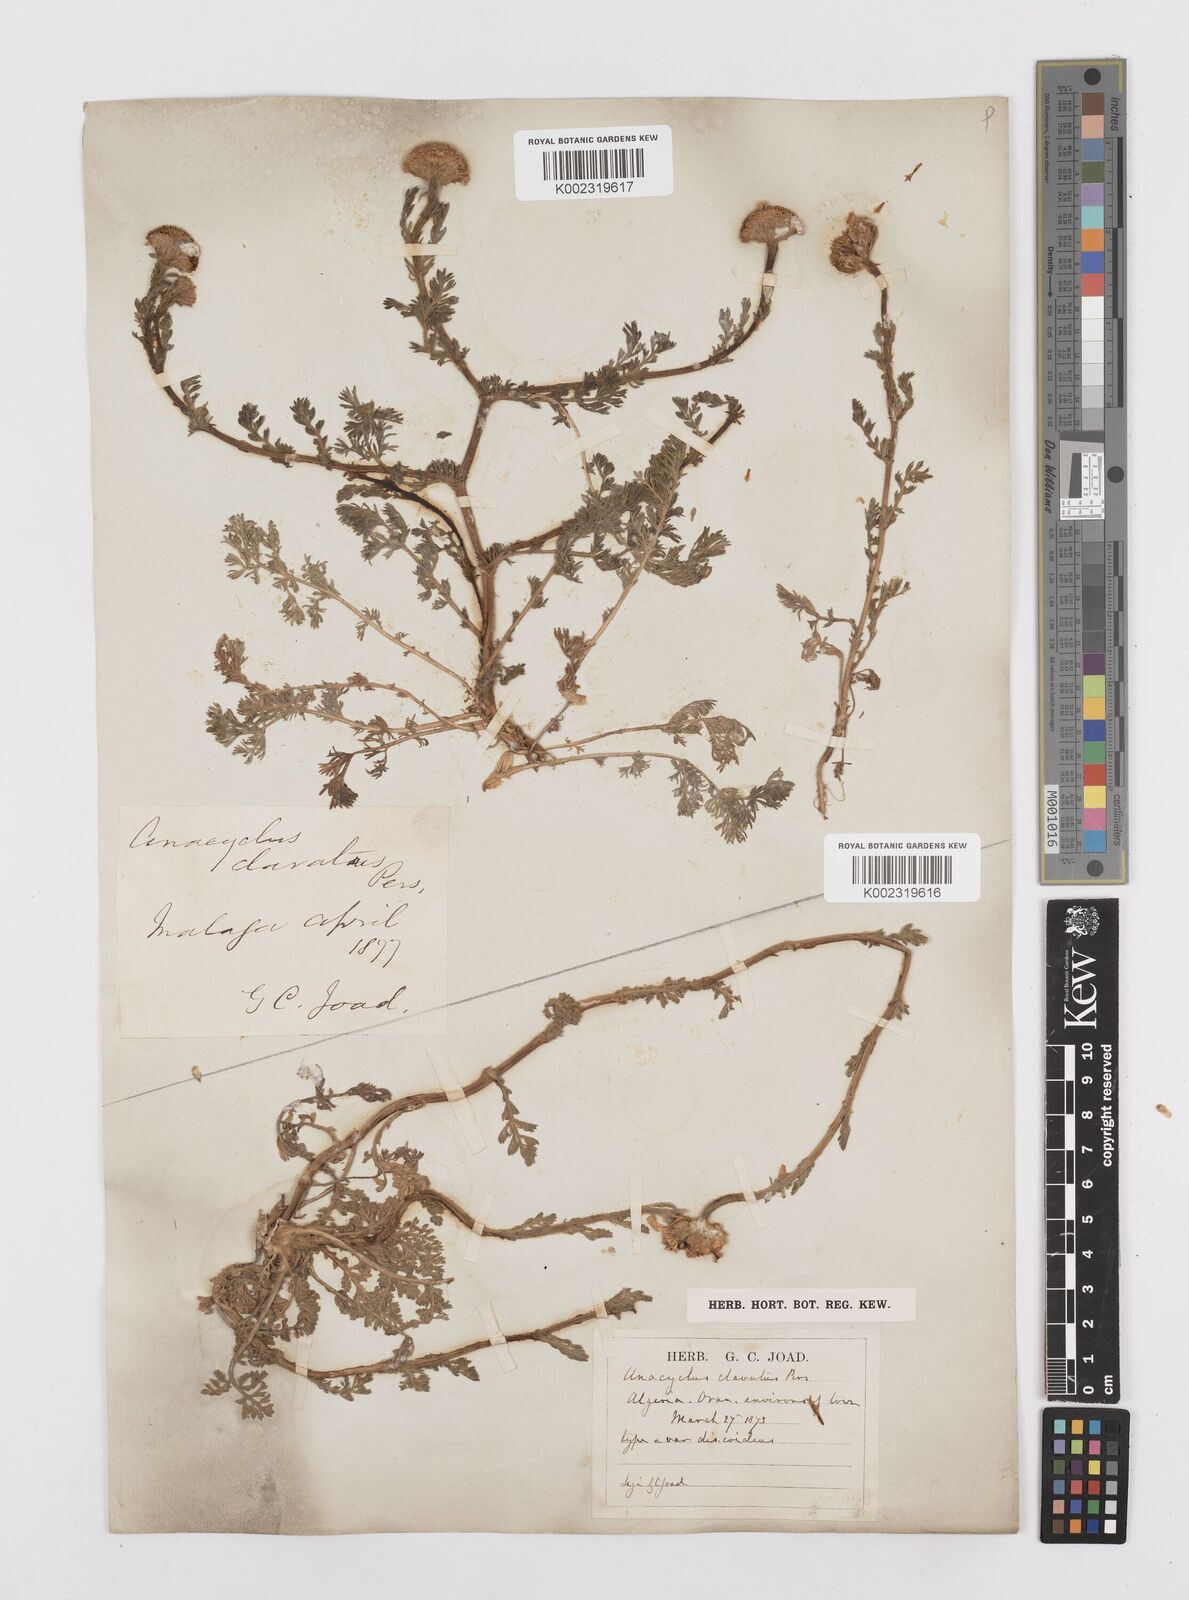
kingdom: Plantae
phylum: Tracheophyta
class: Magnoliopsida
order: Asterales
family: Asteraceae
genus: Anacyclus
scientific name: Anacyclus clavatus
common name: Whitebuttons
